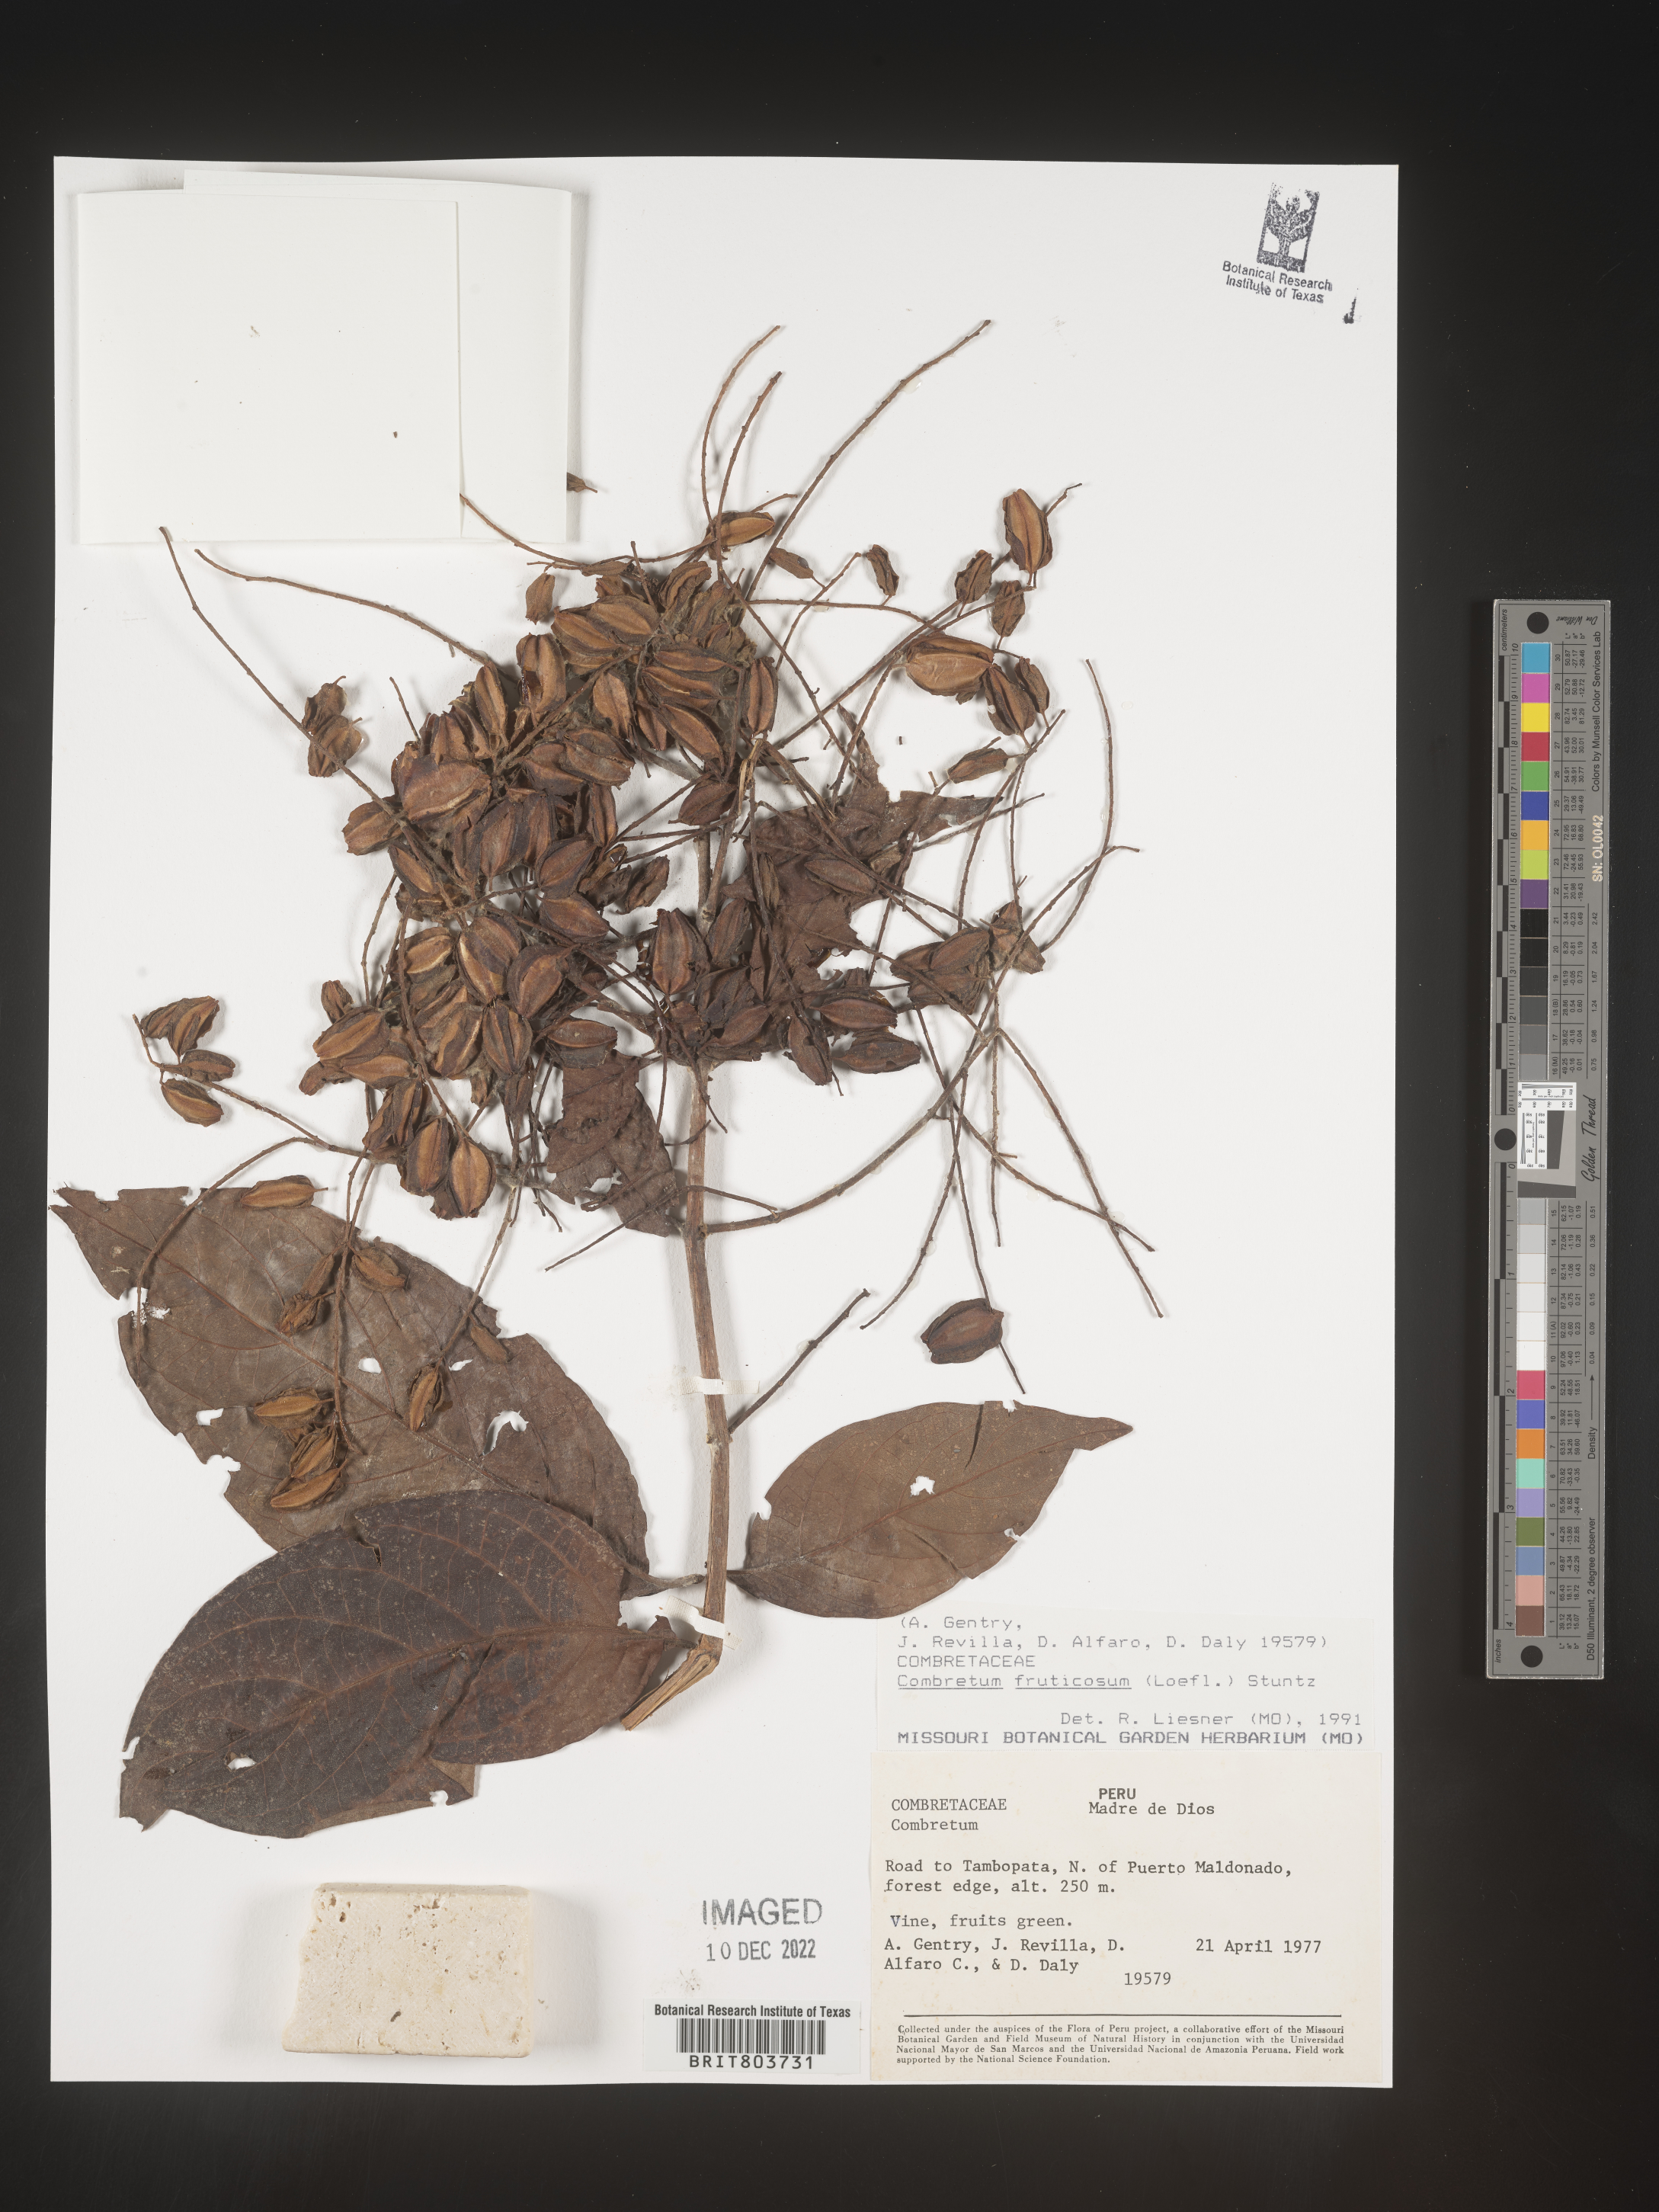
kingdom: Plantae
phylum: Tracheophyta
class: Magnoliopsida
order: Myrtales
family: Combretaceae
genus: Combretum
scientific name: Combretum
